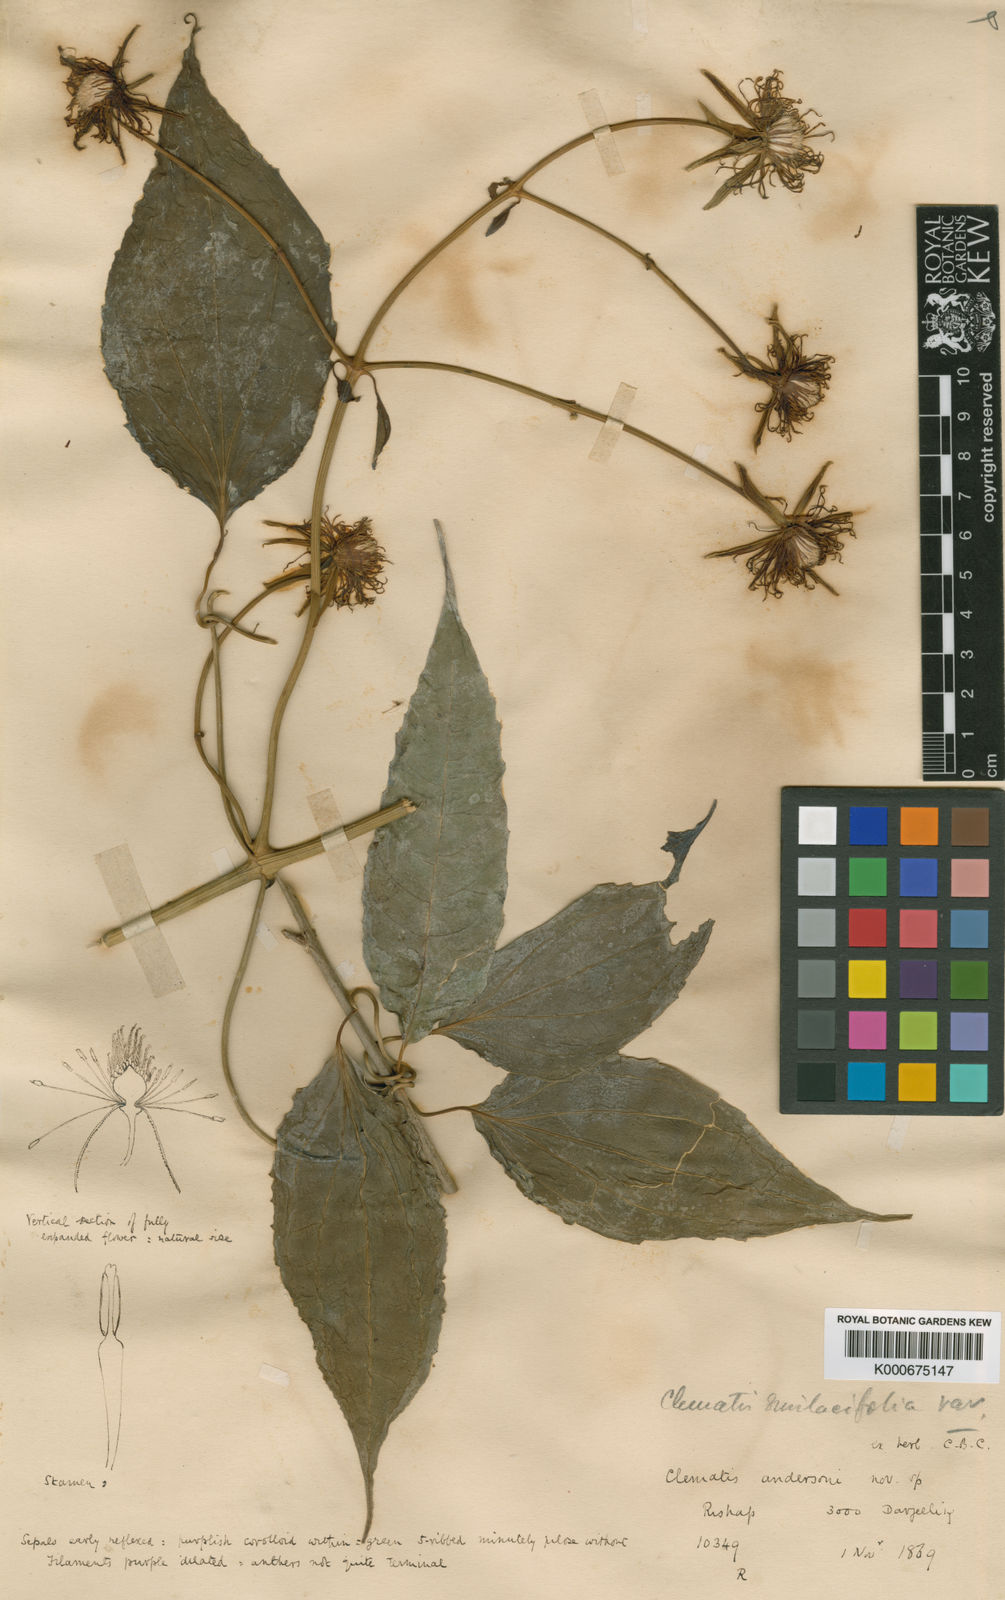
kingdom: Plantae
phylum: Tracheophyta
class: Magnoliopsida
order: Ranunculales
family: Ranunculaceae
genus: Clematis
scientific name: Clematis smilacifolia
